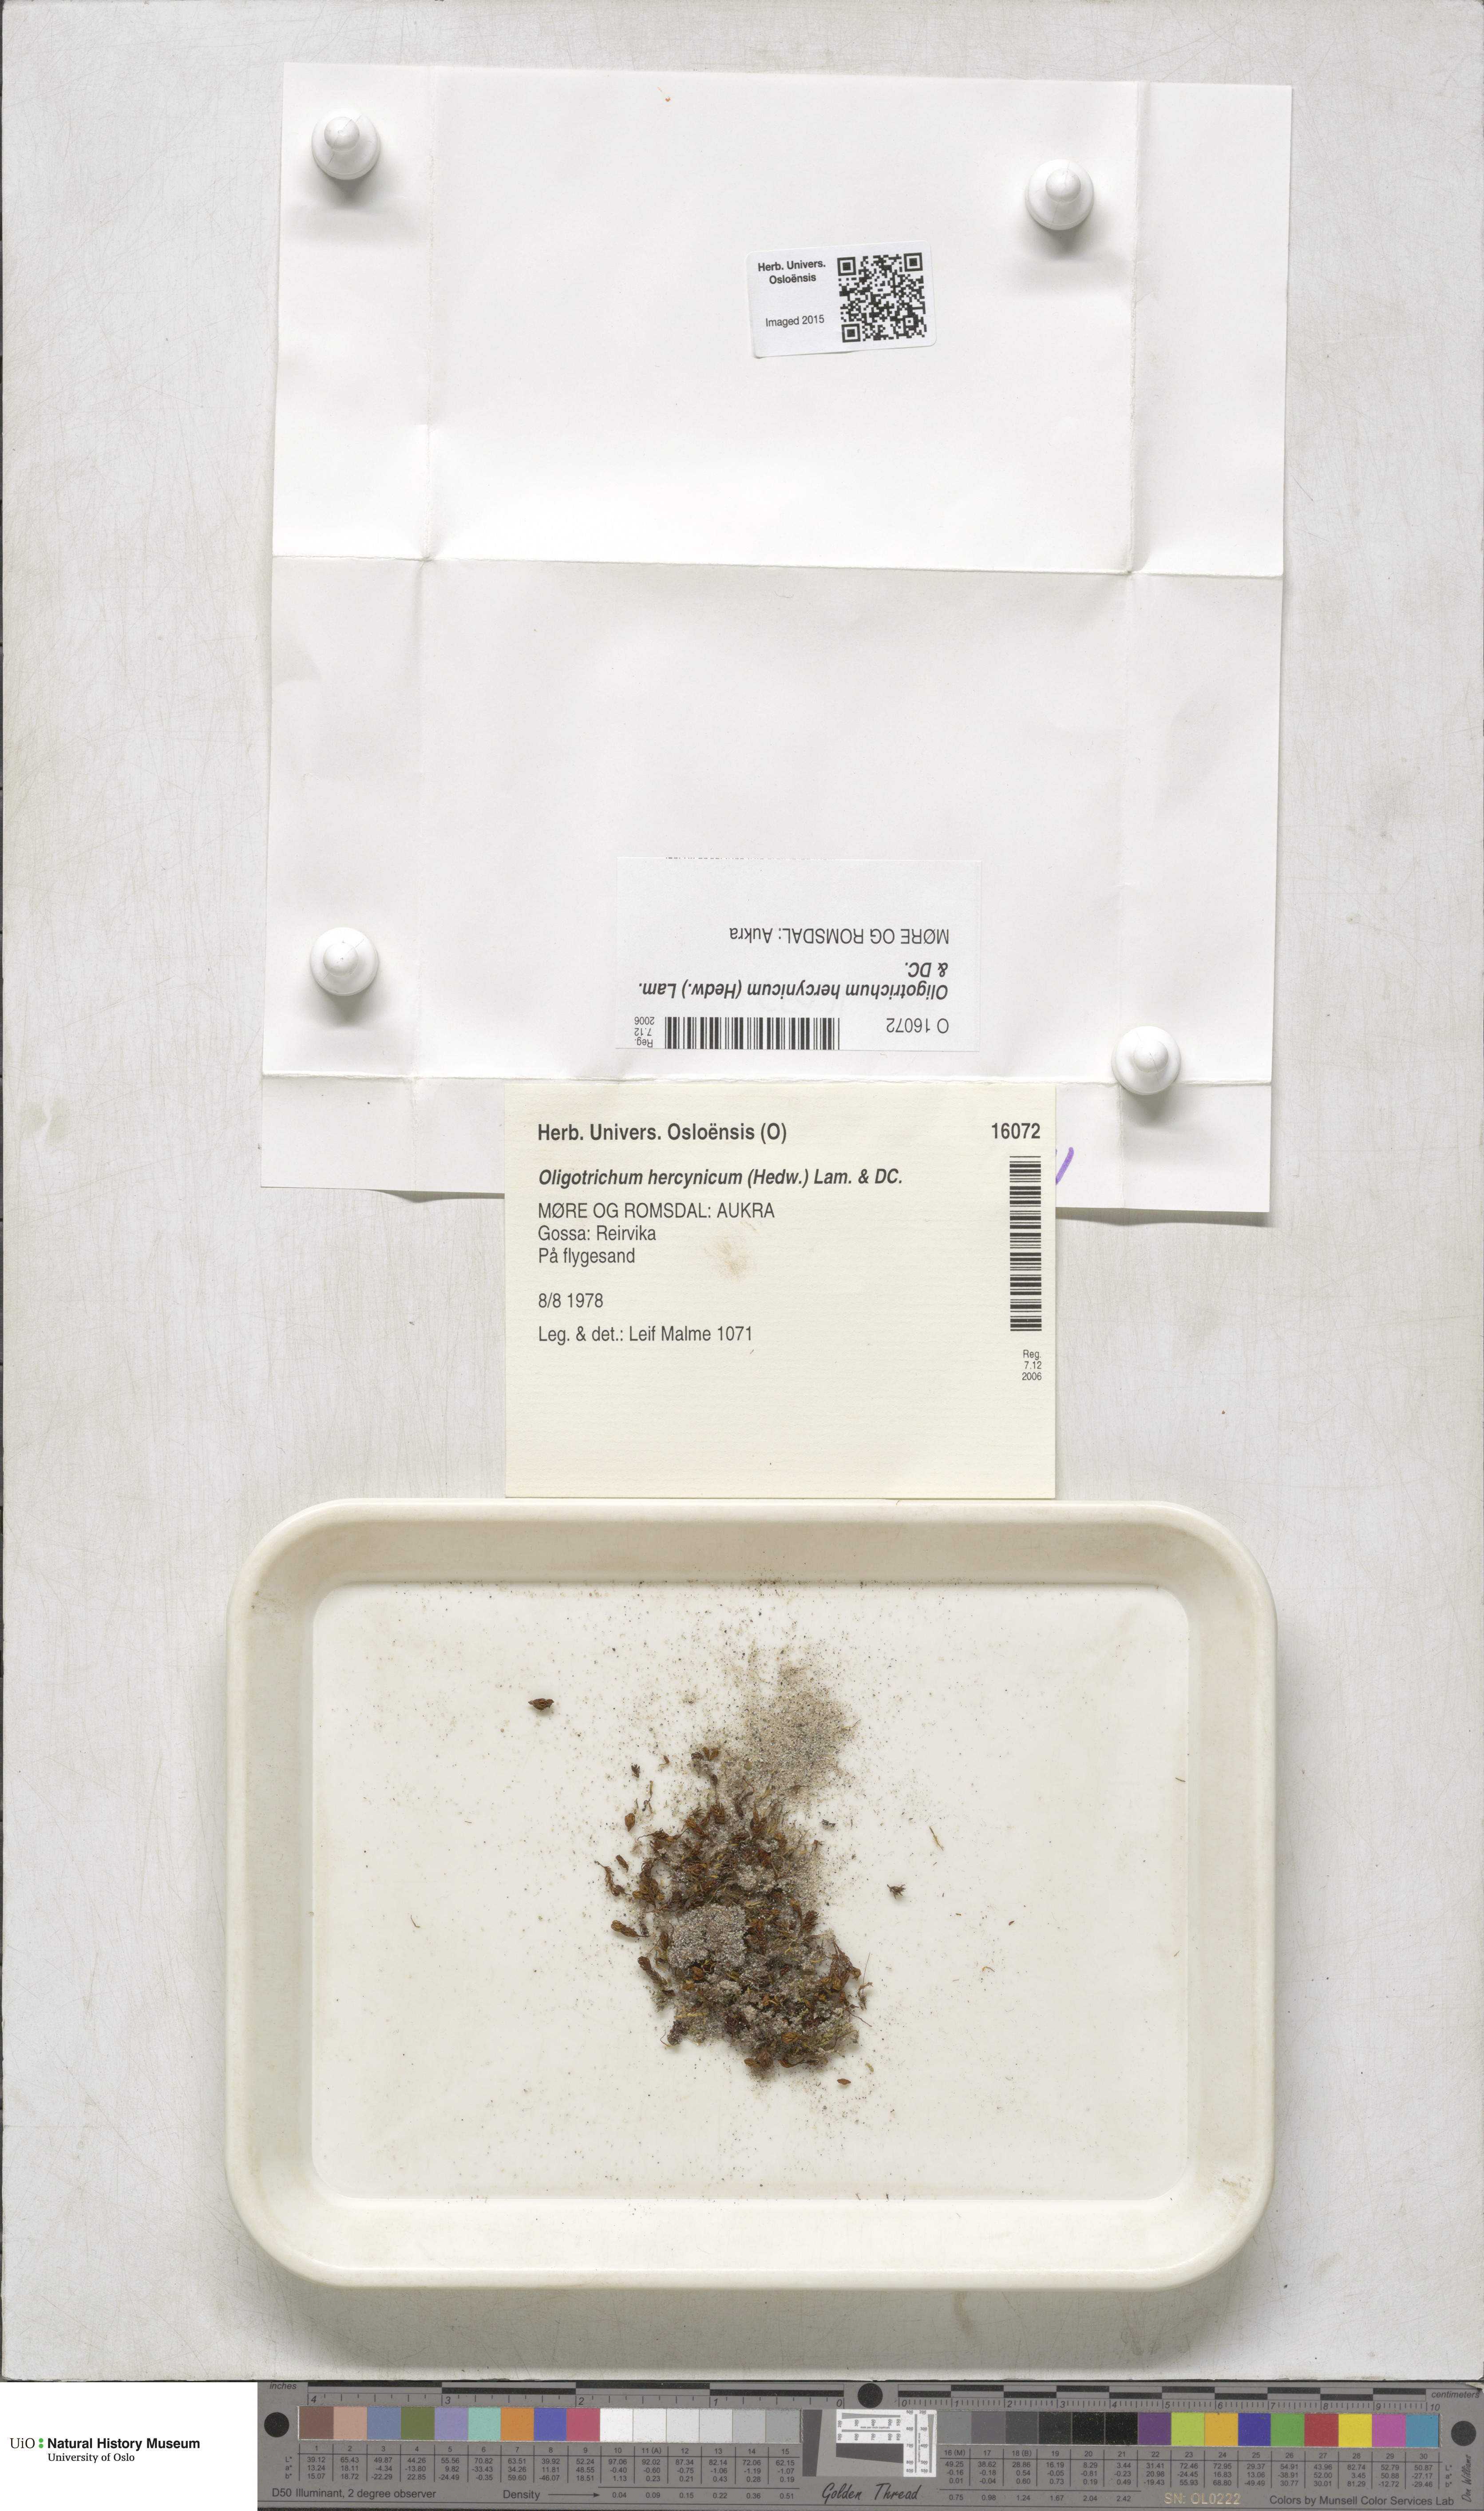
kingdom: Plantae
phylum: Bryophyta
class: Polytrichopsida
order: Polytrichales
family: Polytrichaceae
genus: Oligotrichum
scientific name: Oligotrichum hercynicum
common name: Hercynian hair moss
